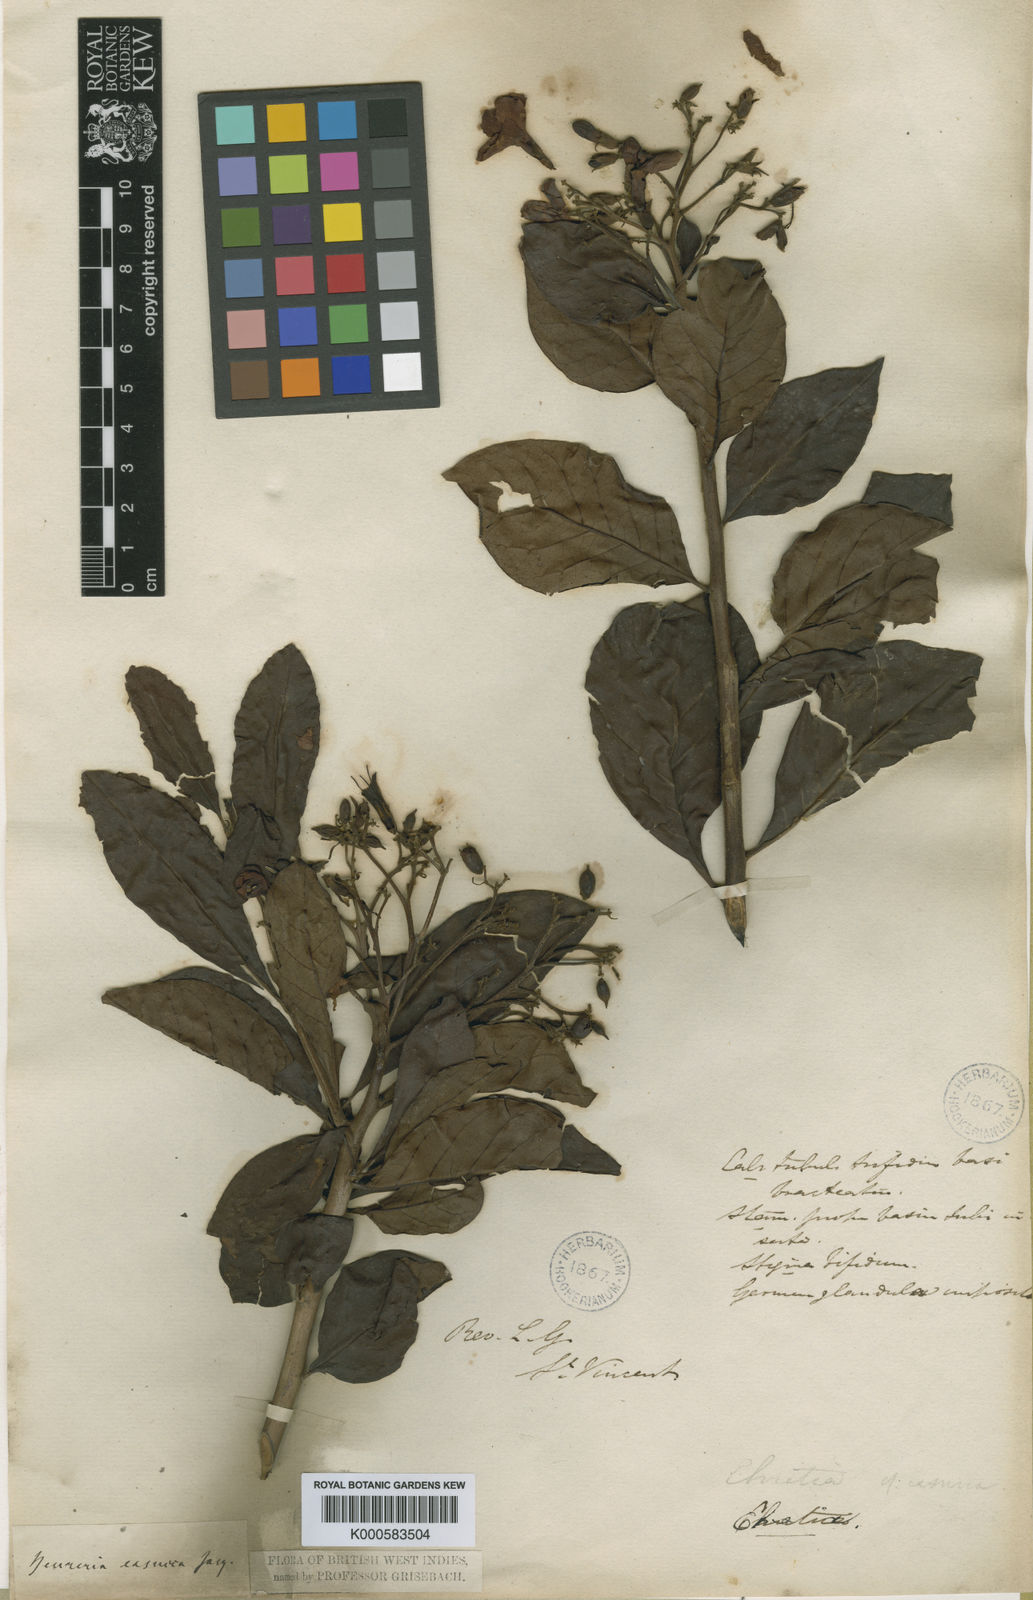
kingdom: Plantae
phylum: Tracheophyta
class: Magnoliopsida
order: Boraginales
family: Ehretiaceae
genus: Bourreria
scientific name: Bourreria
